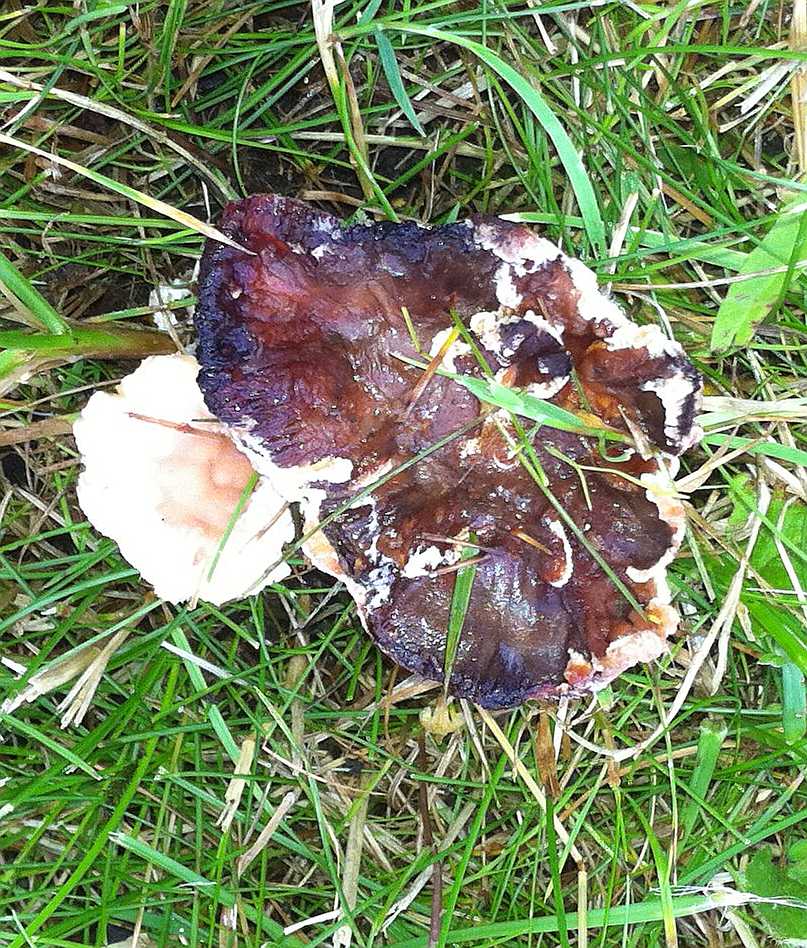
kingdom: Fungi
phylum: Basidiomycota
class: Agaricomycetes
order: Polyporales
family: Podoscyphaceae
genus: Abortiporus
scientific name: Abortiporus biennis
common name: rødmende pjalteporesvamp
